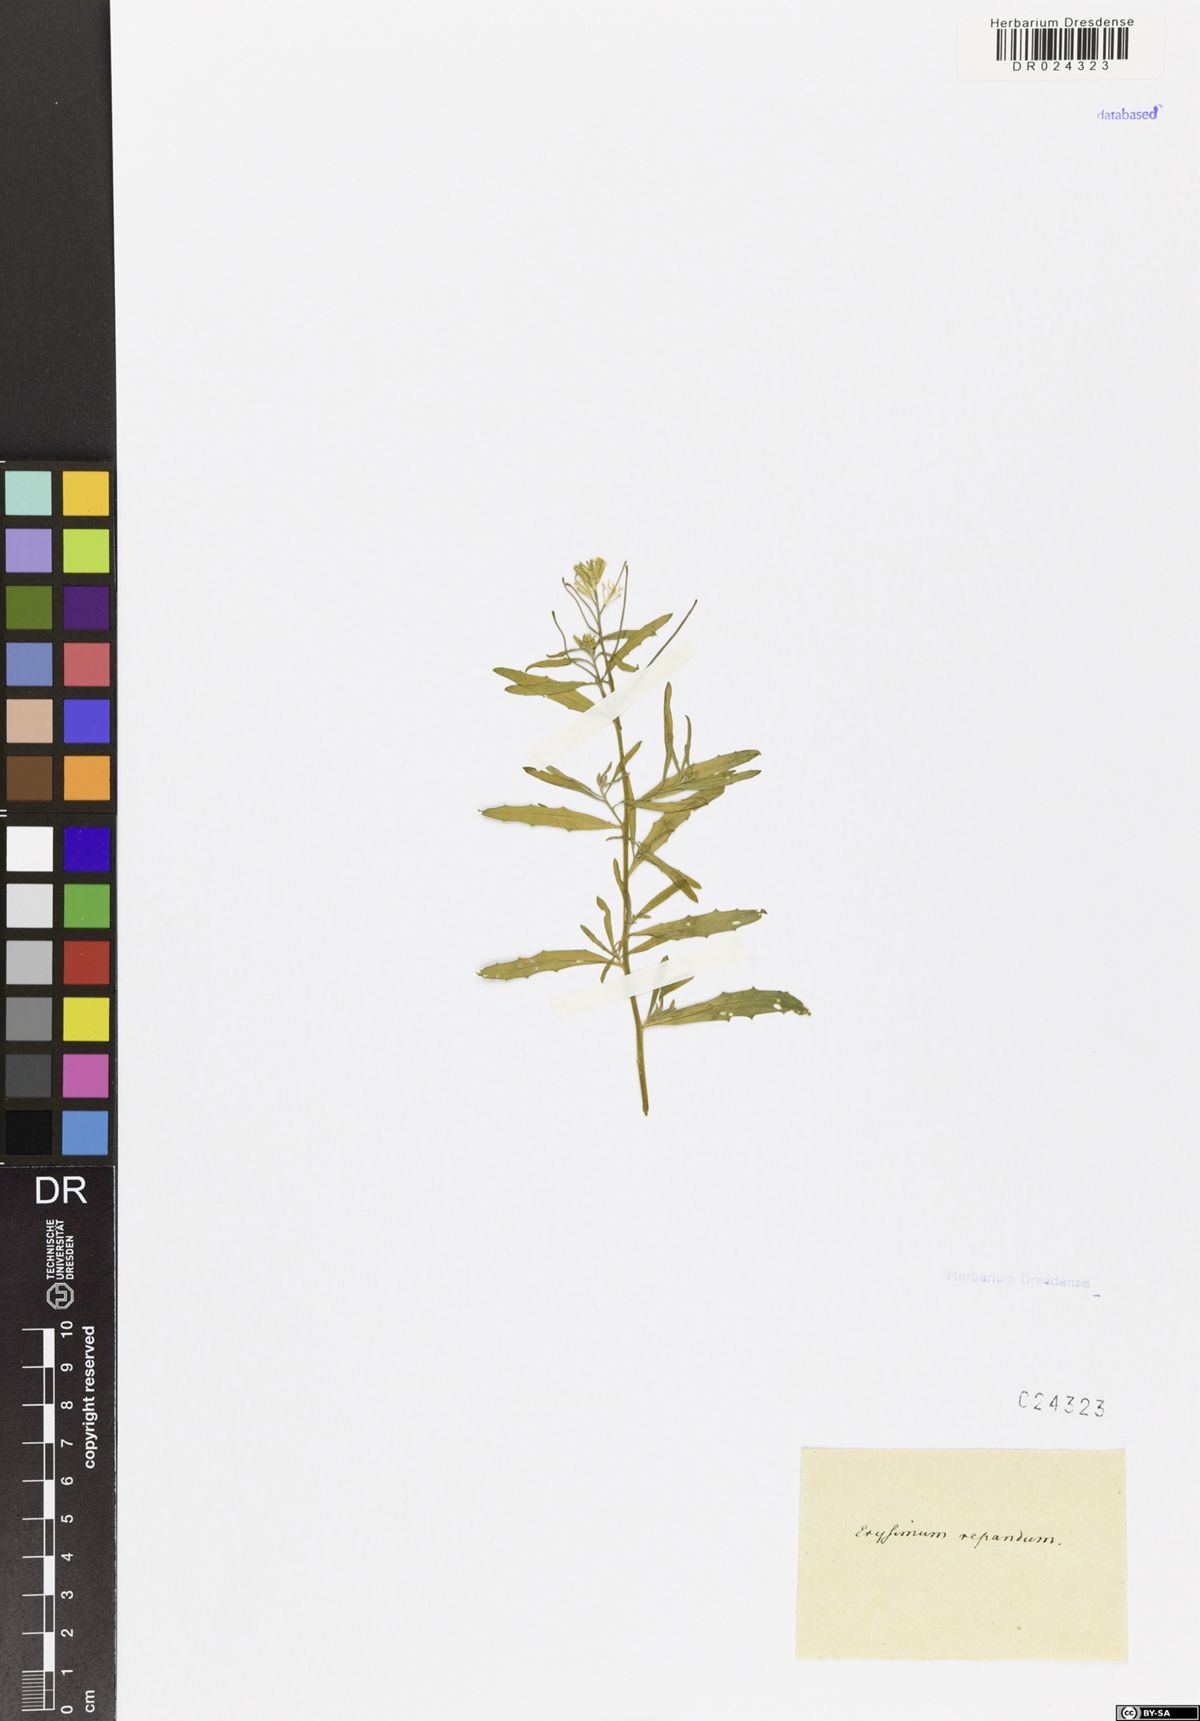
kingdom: Plantae
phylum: Tracheophyta
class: Magnoliopsida
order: Brassicales
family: Brassicaceae
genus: Erysimum
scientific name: Erysimum repandum
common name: Spreading wallflower
